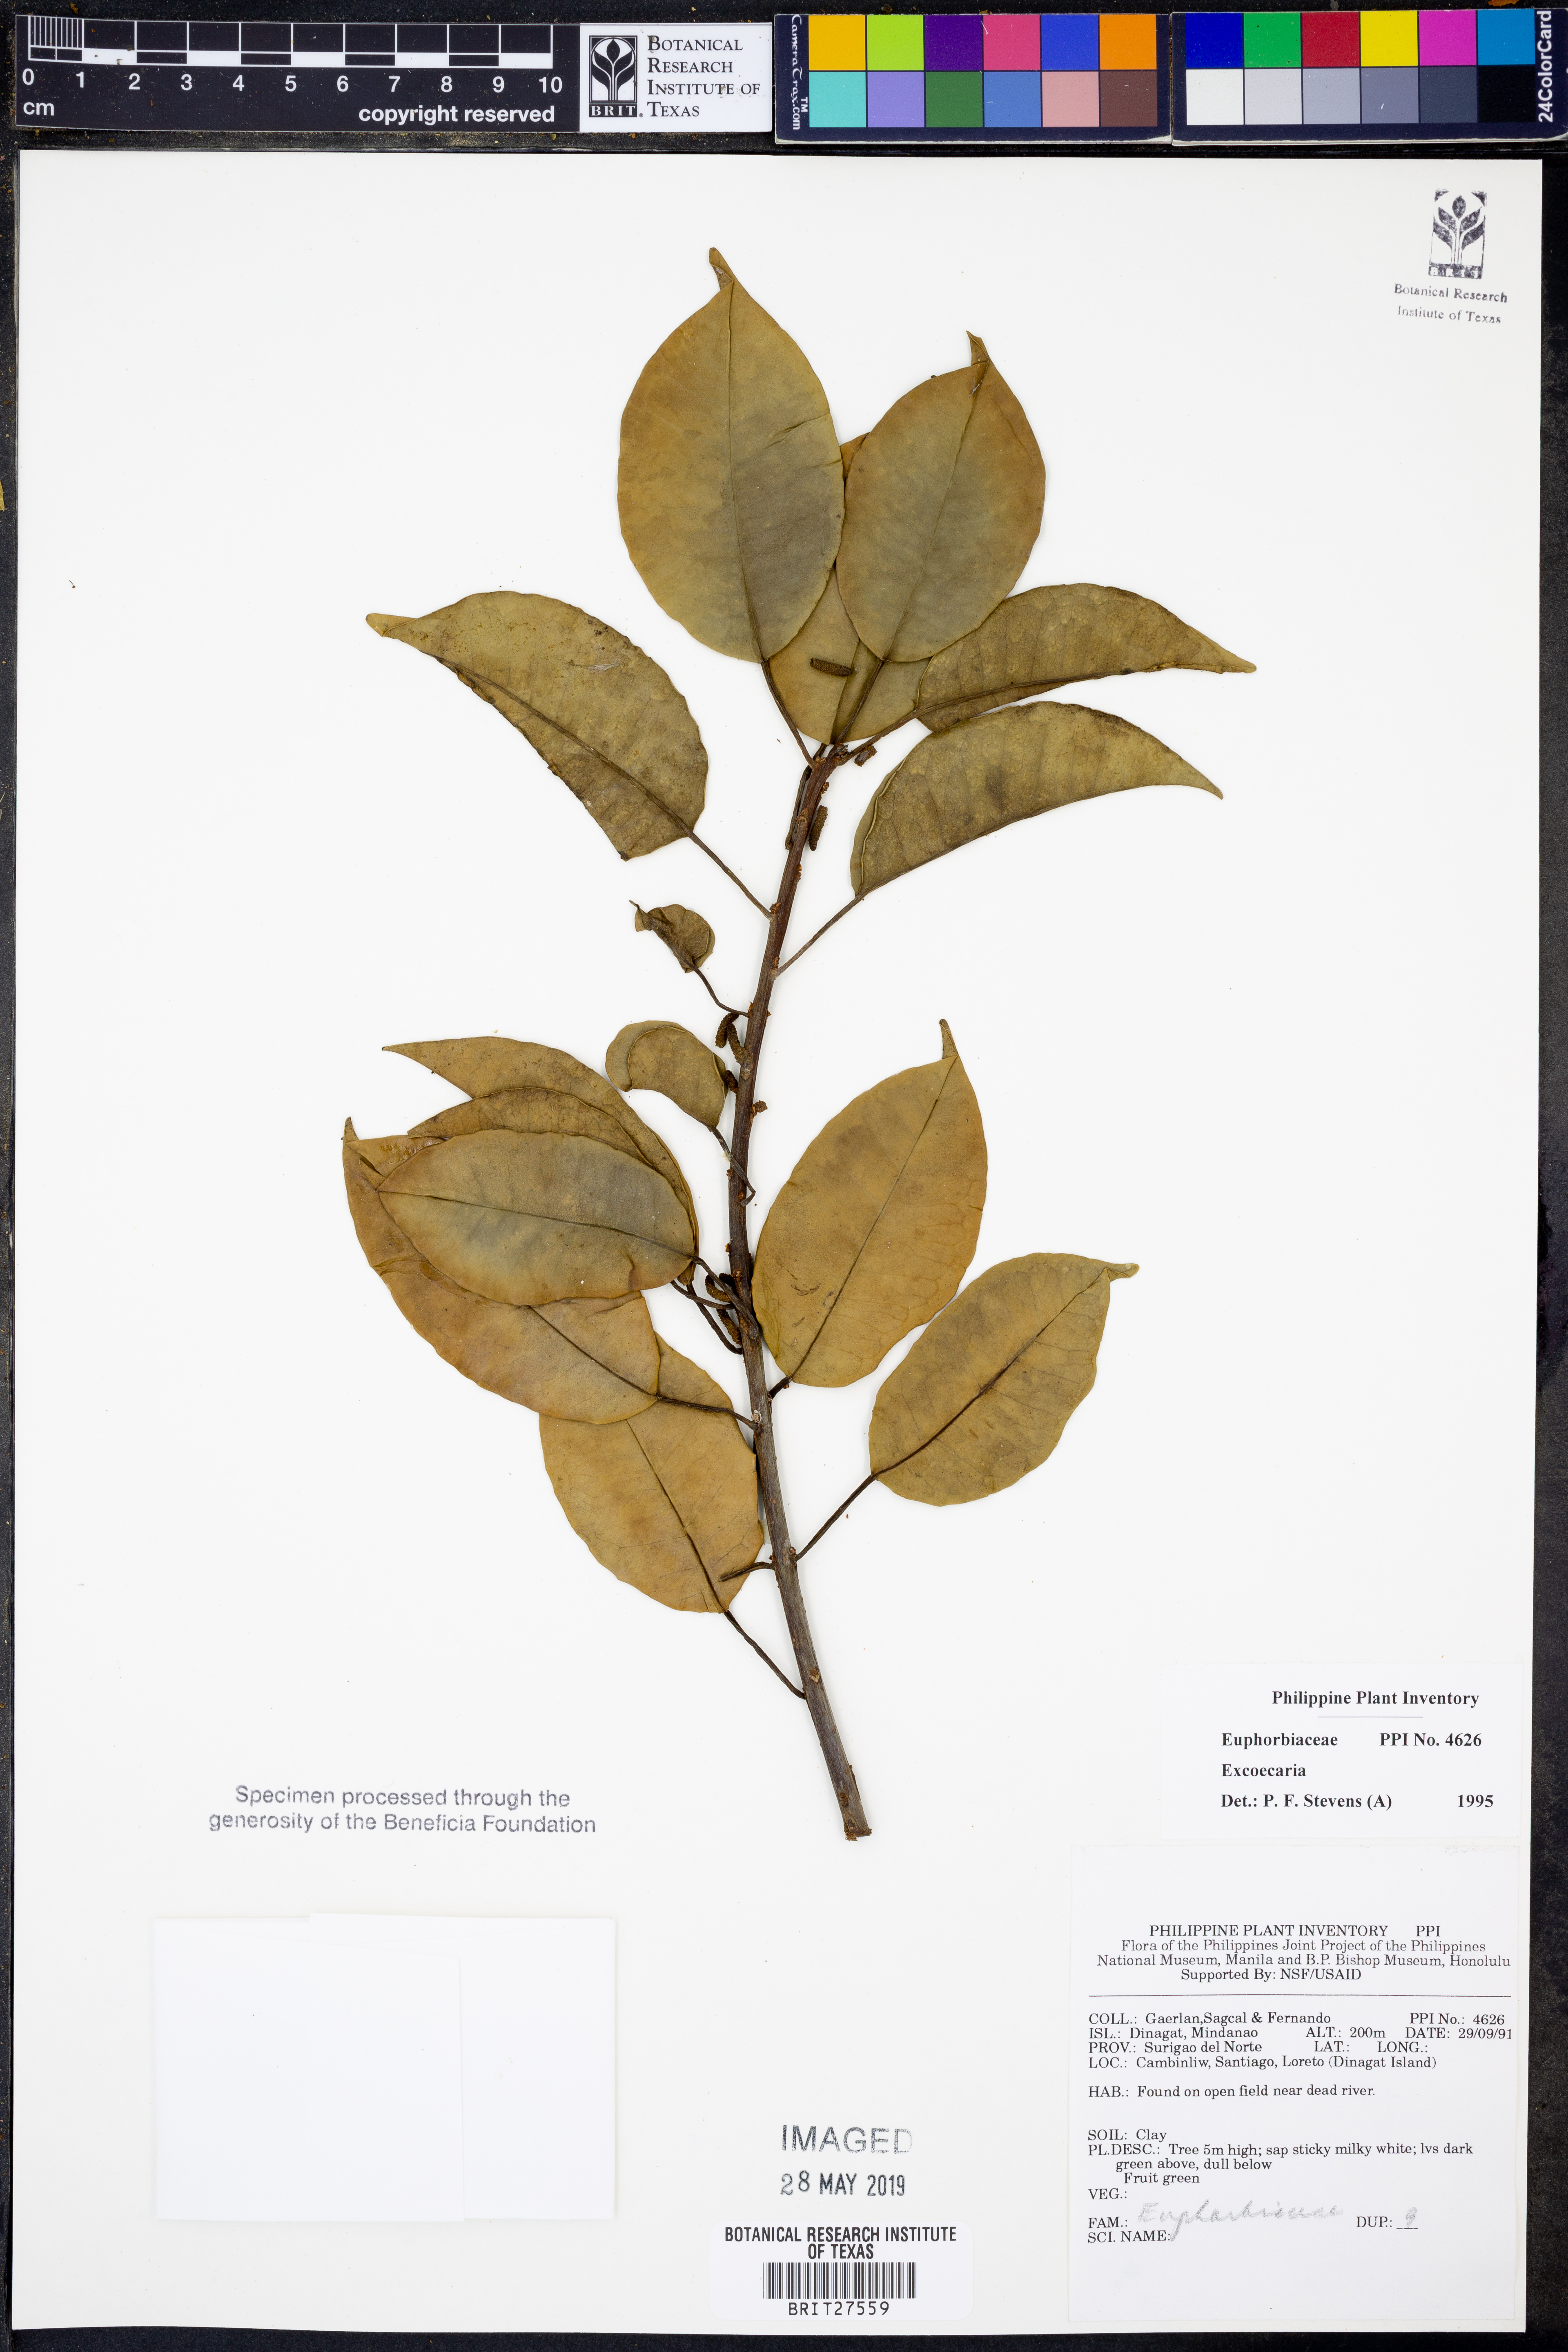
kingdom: Plantae
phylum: Tracheophyta
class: Magnoliopsida
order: Malpighiales
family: Euphorbiaceae
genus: Excoecaria
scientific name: Excoecaria
